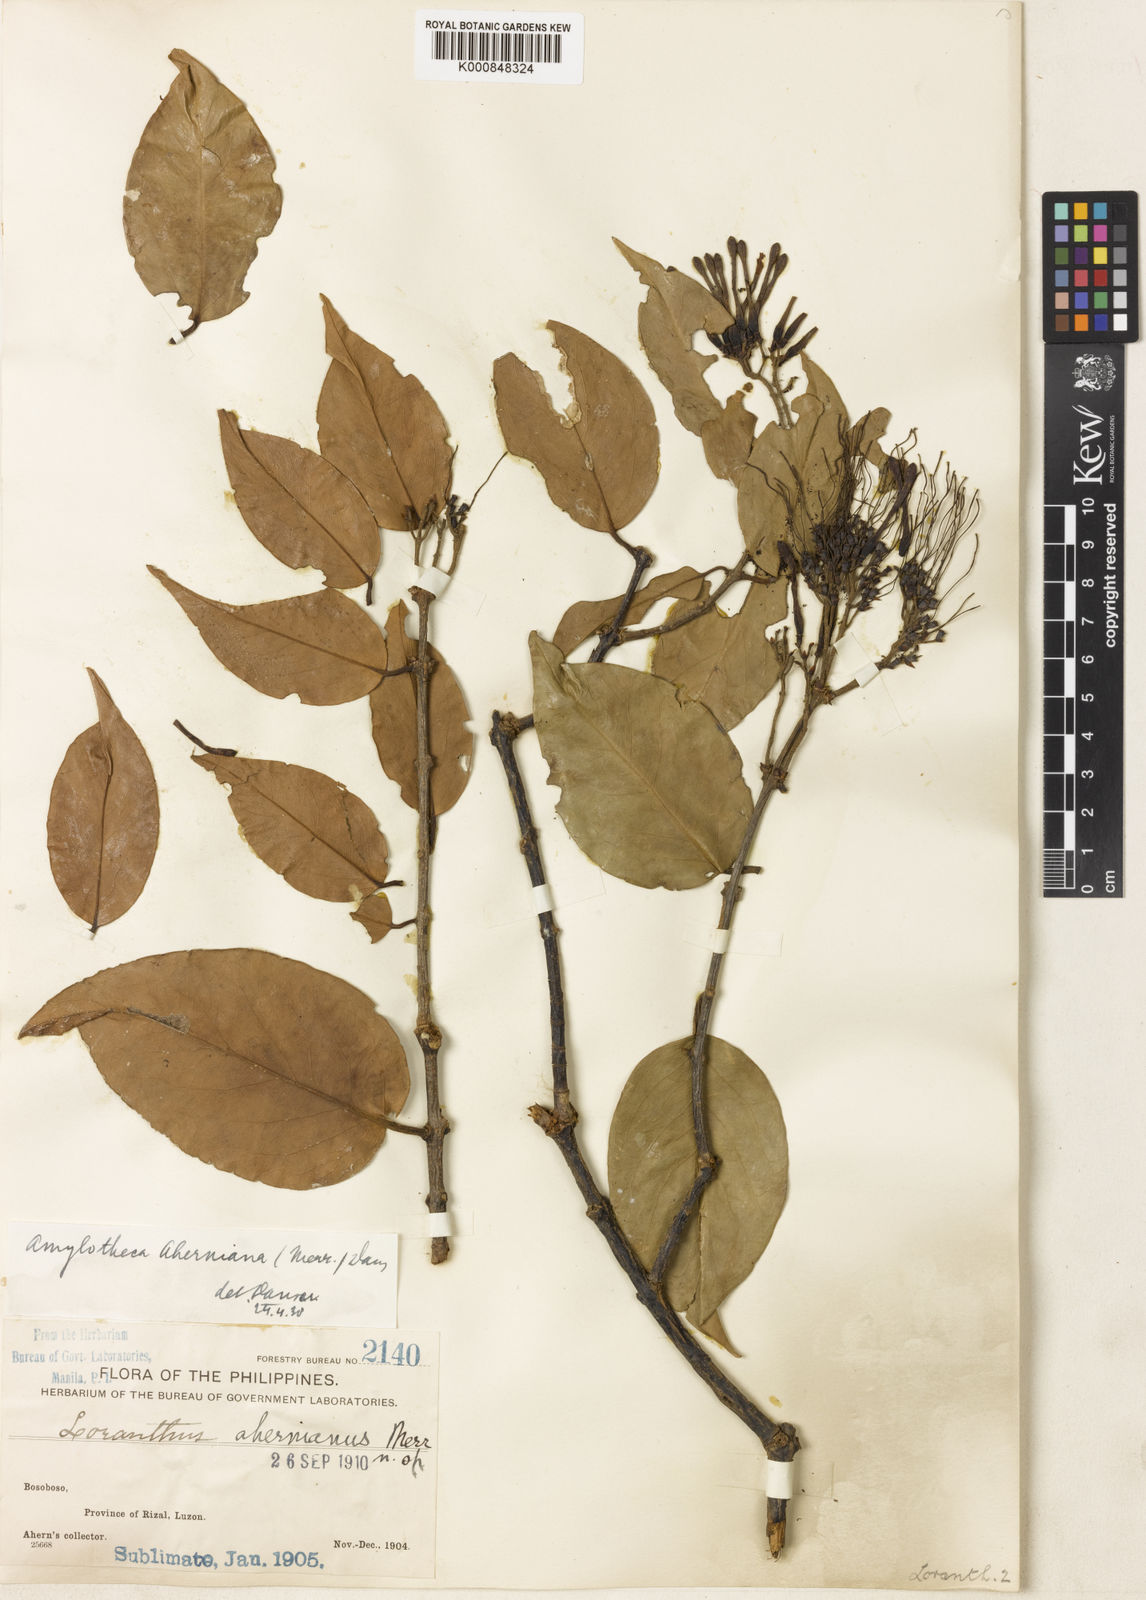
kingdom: Plantae
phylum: Tracheophyta
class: Magnoliopsida
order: Santalales
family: Loranthaceae
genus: Decaisnina
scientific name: Decaisnina aherniana
